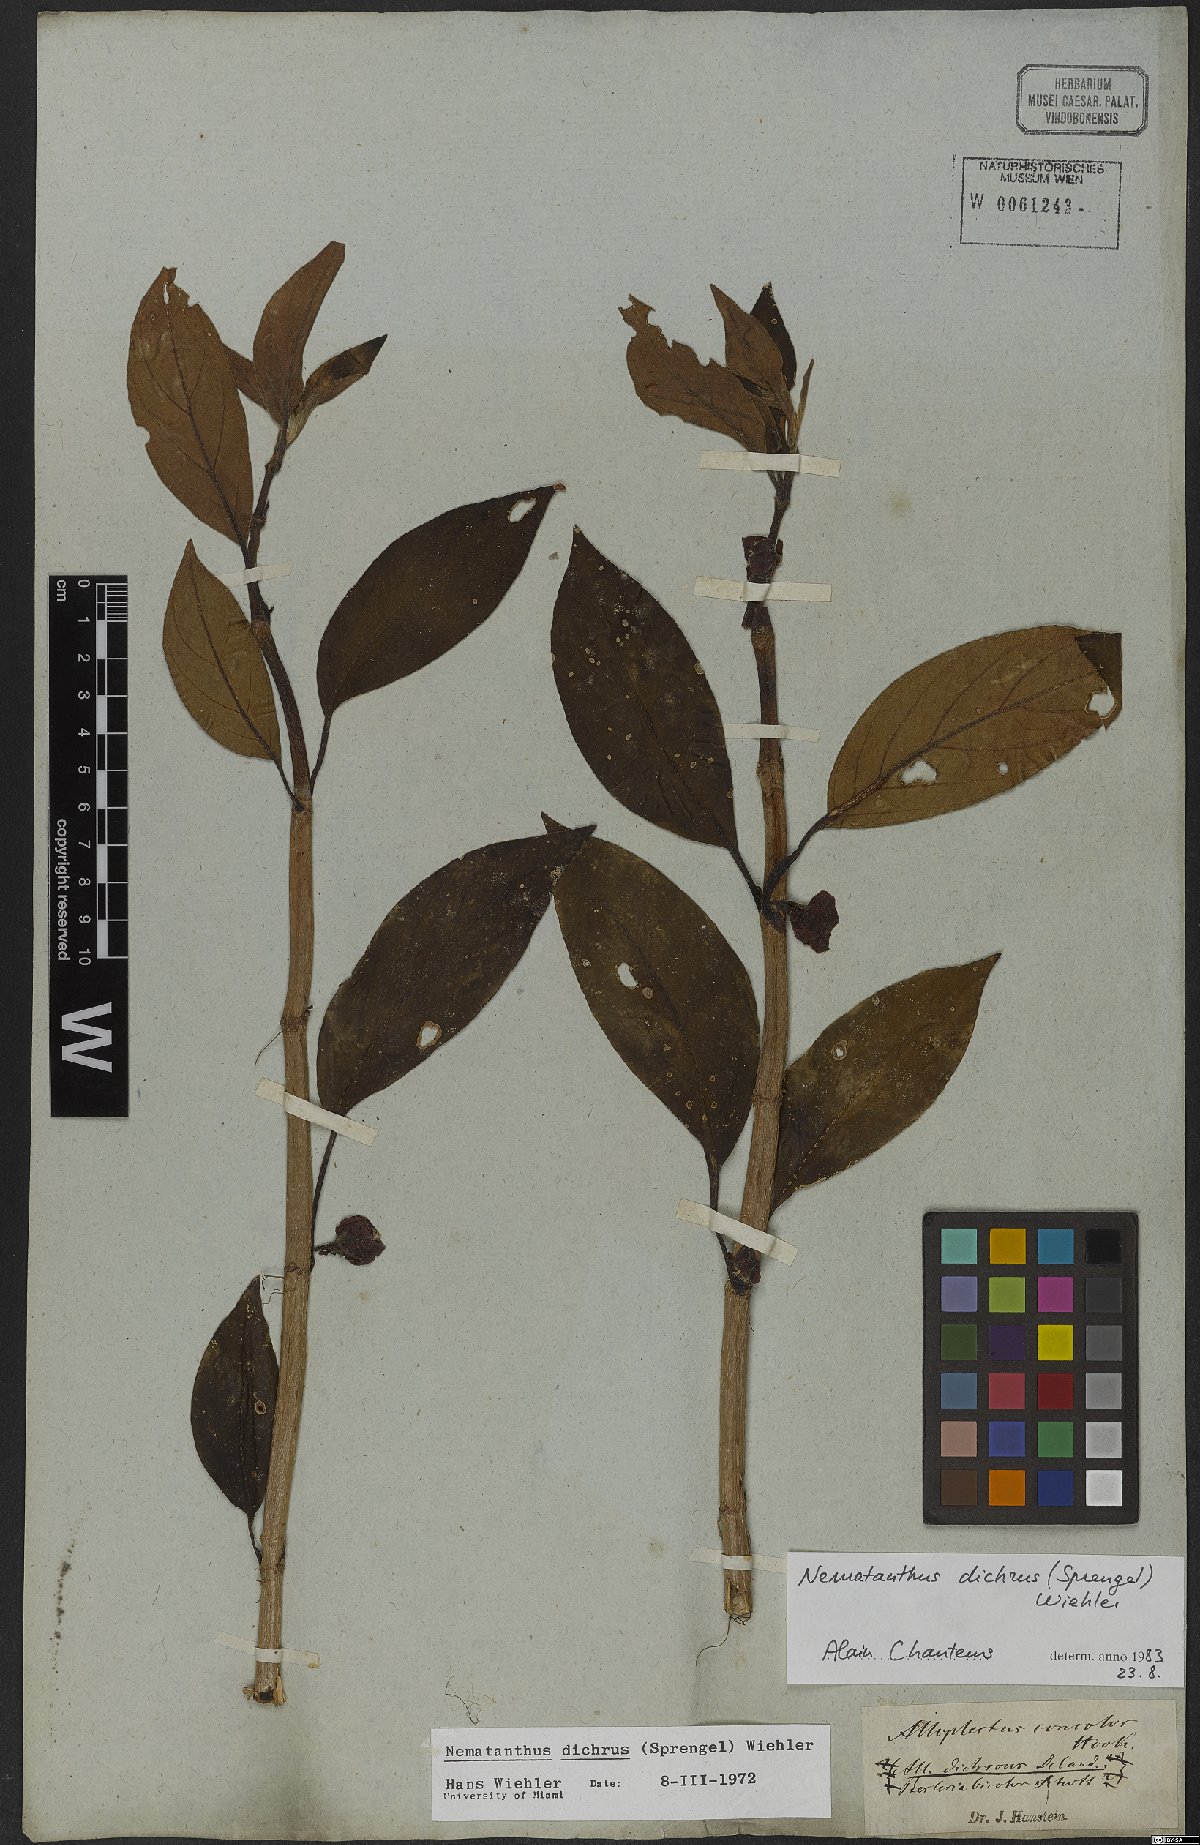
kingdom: Plantae
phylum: Tracheophyta
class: Magnoliopsida
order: Lamiales
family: Gesneriaceae
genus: Nematanthus
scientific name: Nematanthus lanceolatus
